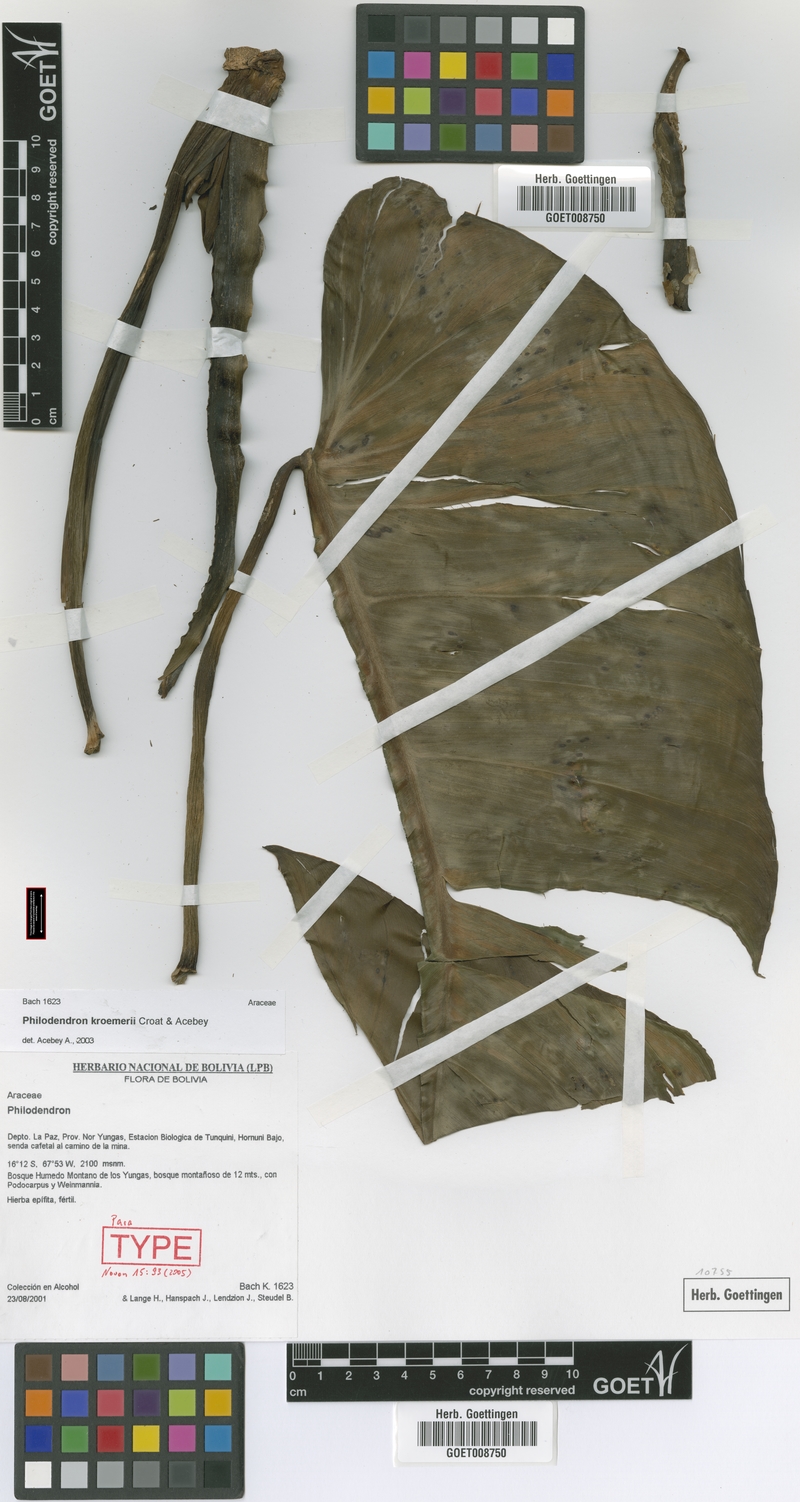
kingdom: Plantae
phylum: Tracheophyta
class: Liliopsida
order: Alismatales
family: Araceae
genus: Philodendron
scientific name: Philodendron kroemeri
